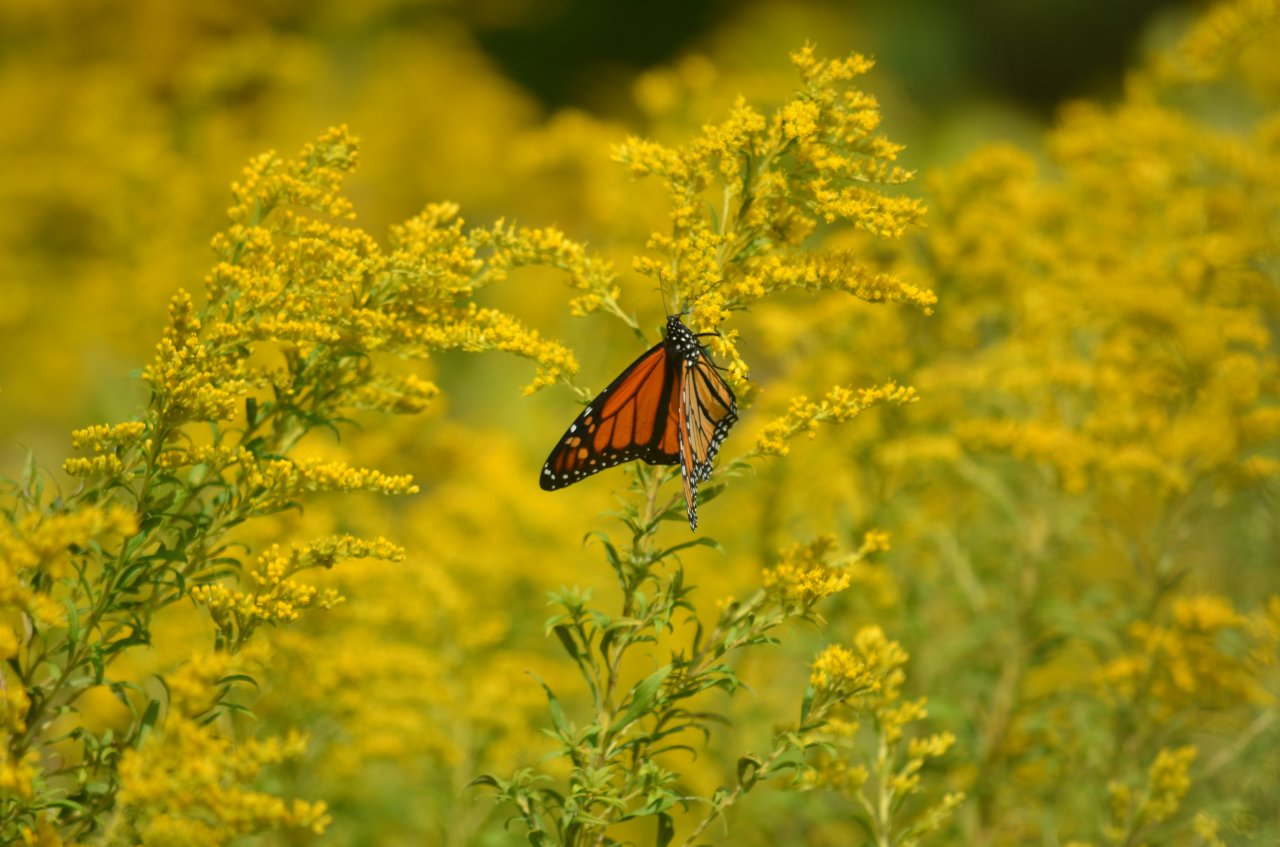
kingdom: Animalia
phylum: Arthropoda
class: Insecta
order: Lepidoptera
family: Nymphalidae
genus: Danaus
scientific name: Danaus plexippus
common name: Monarch
